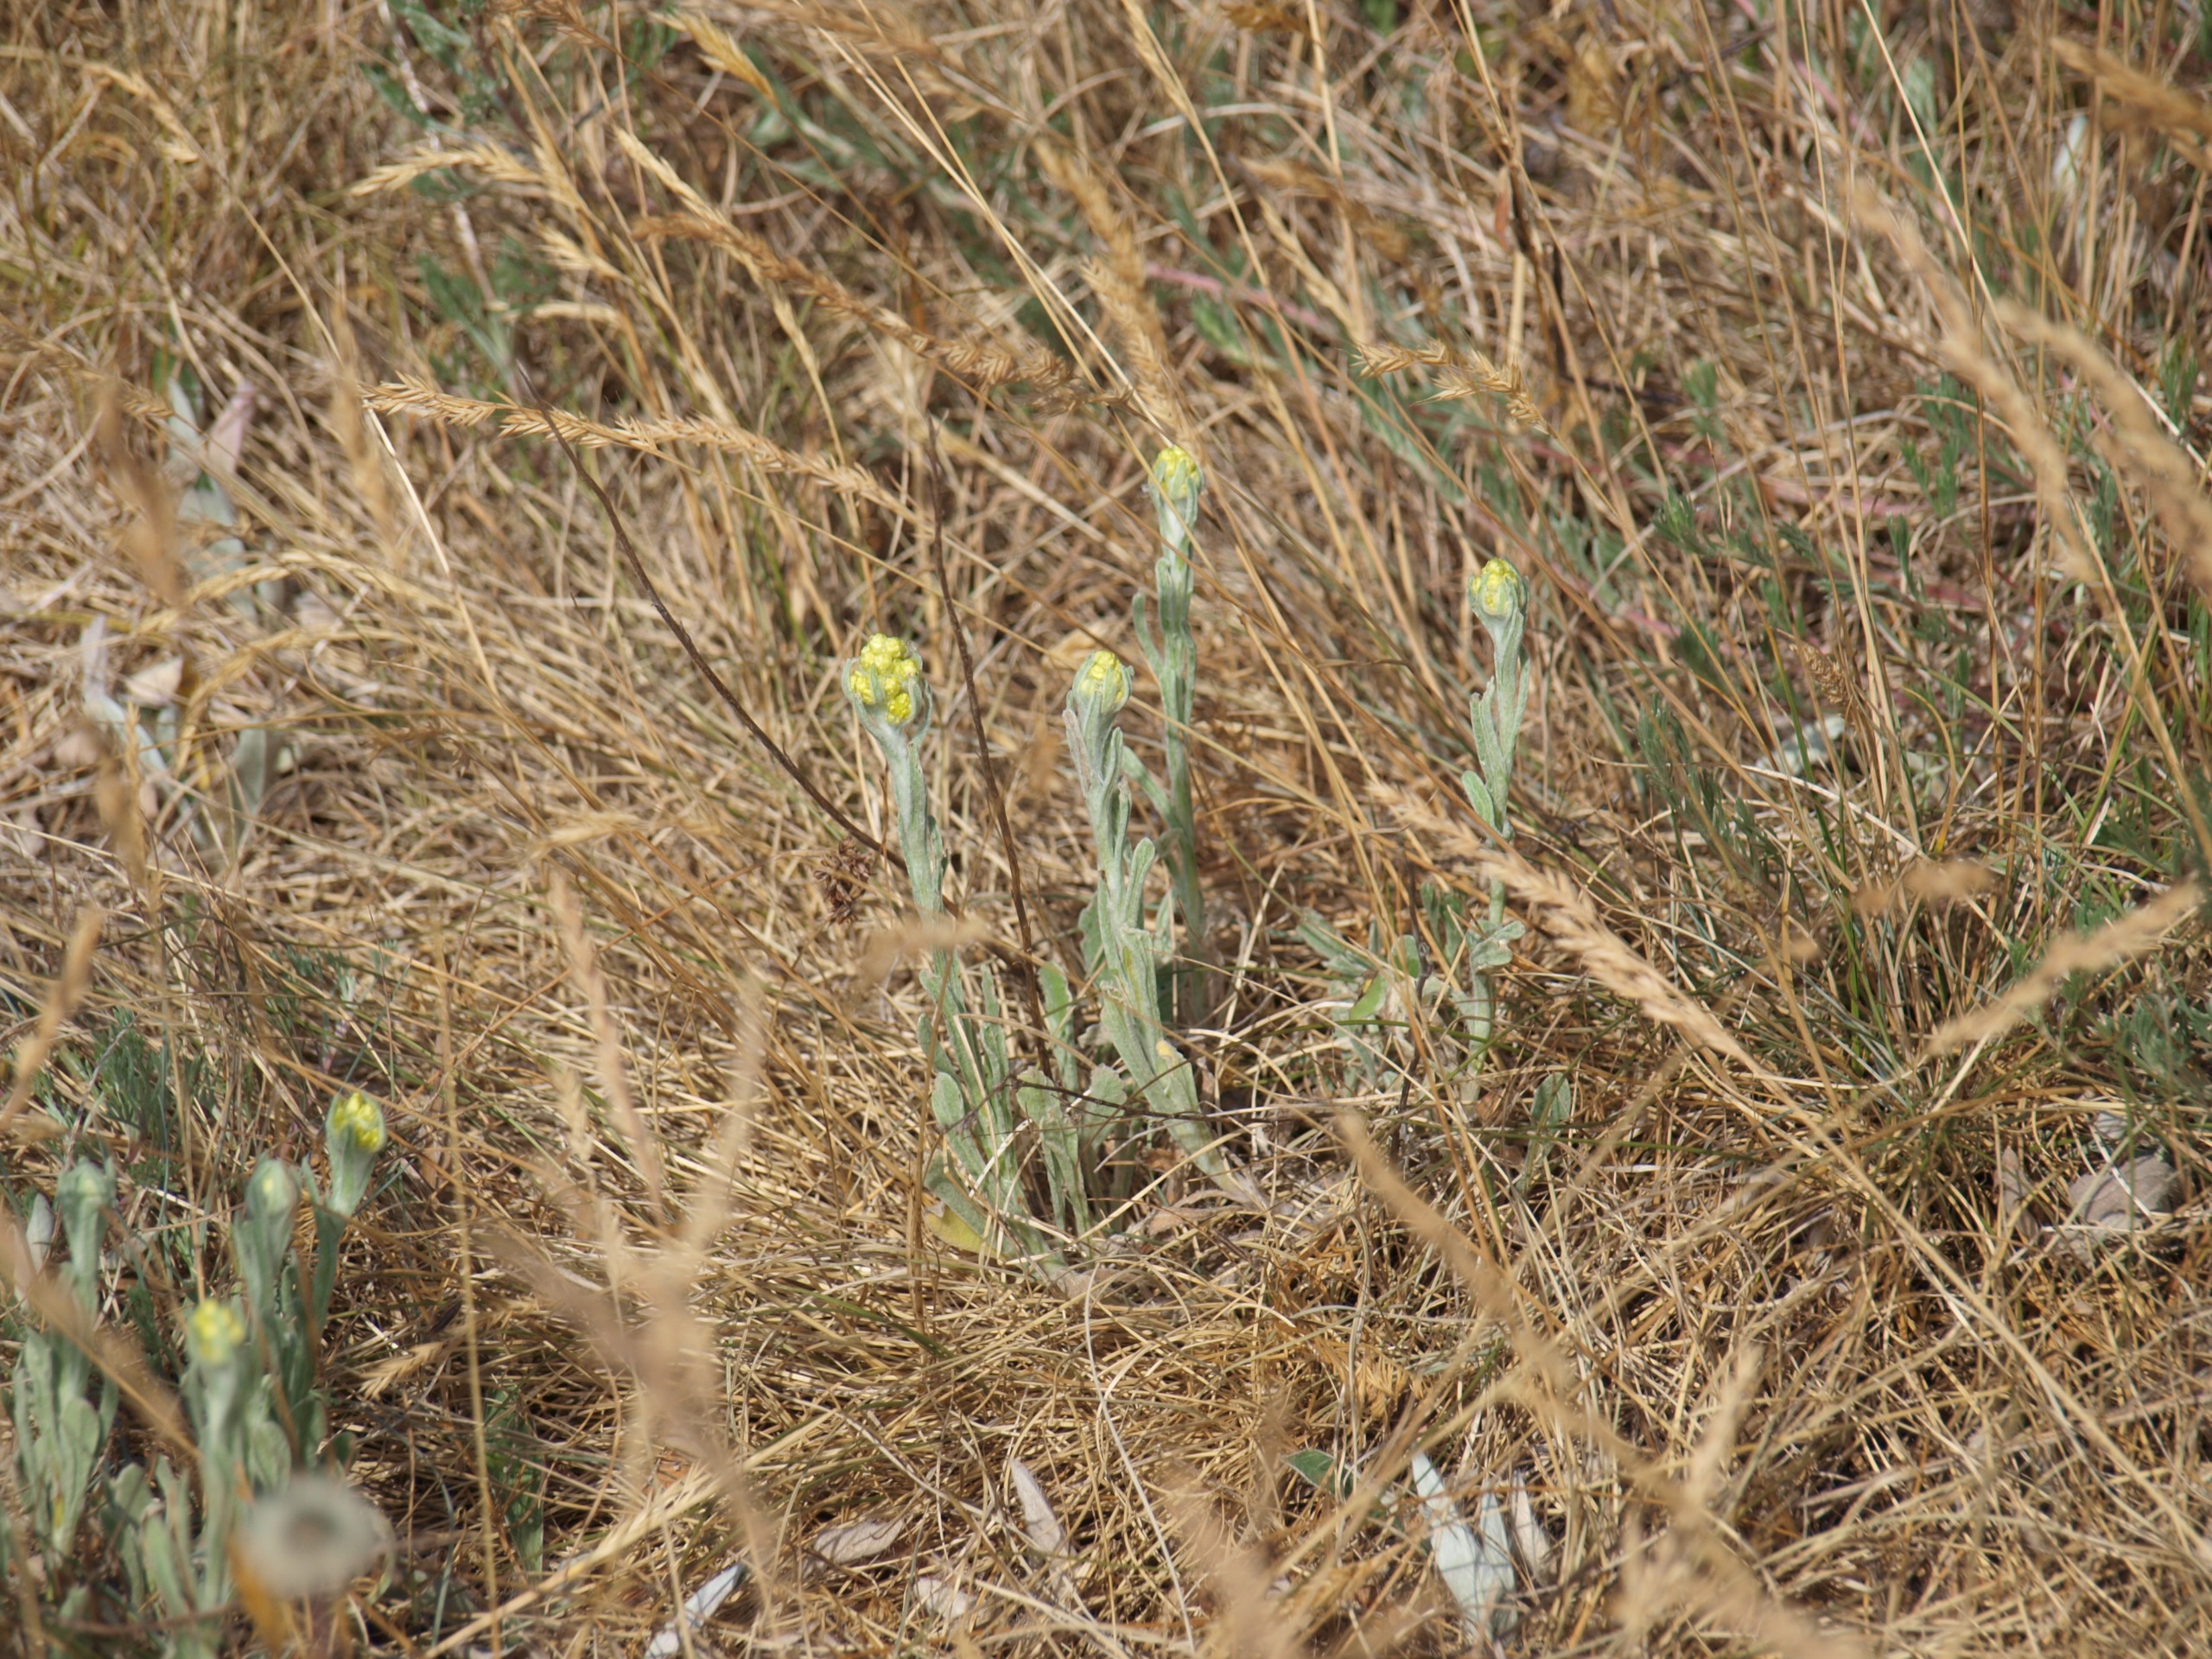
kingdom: Plantae
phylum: Tracheophyta
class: Magnoliopsida
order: Asterales
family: Asteraceae
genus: Helichrysum
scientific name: Helichrysum arenarium
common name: Gul evighedsblomst
